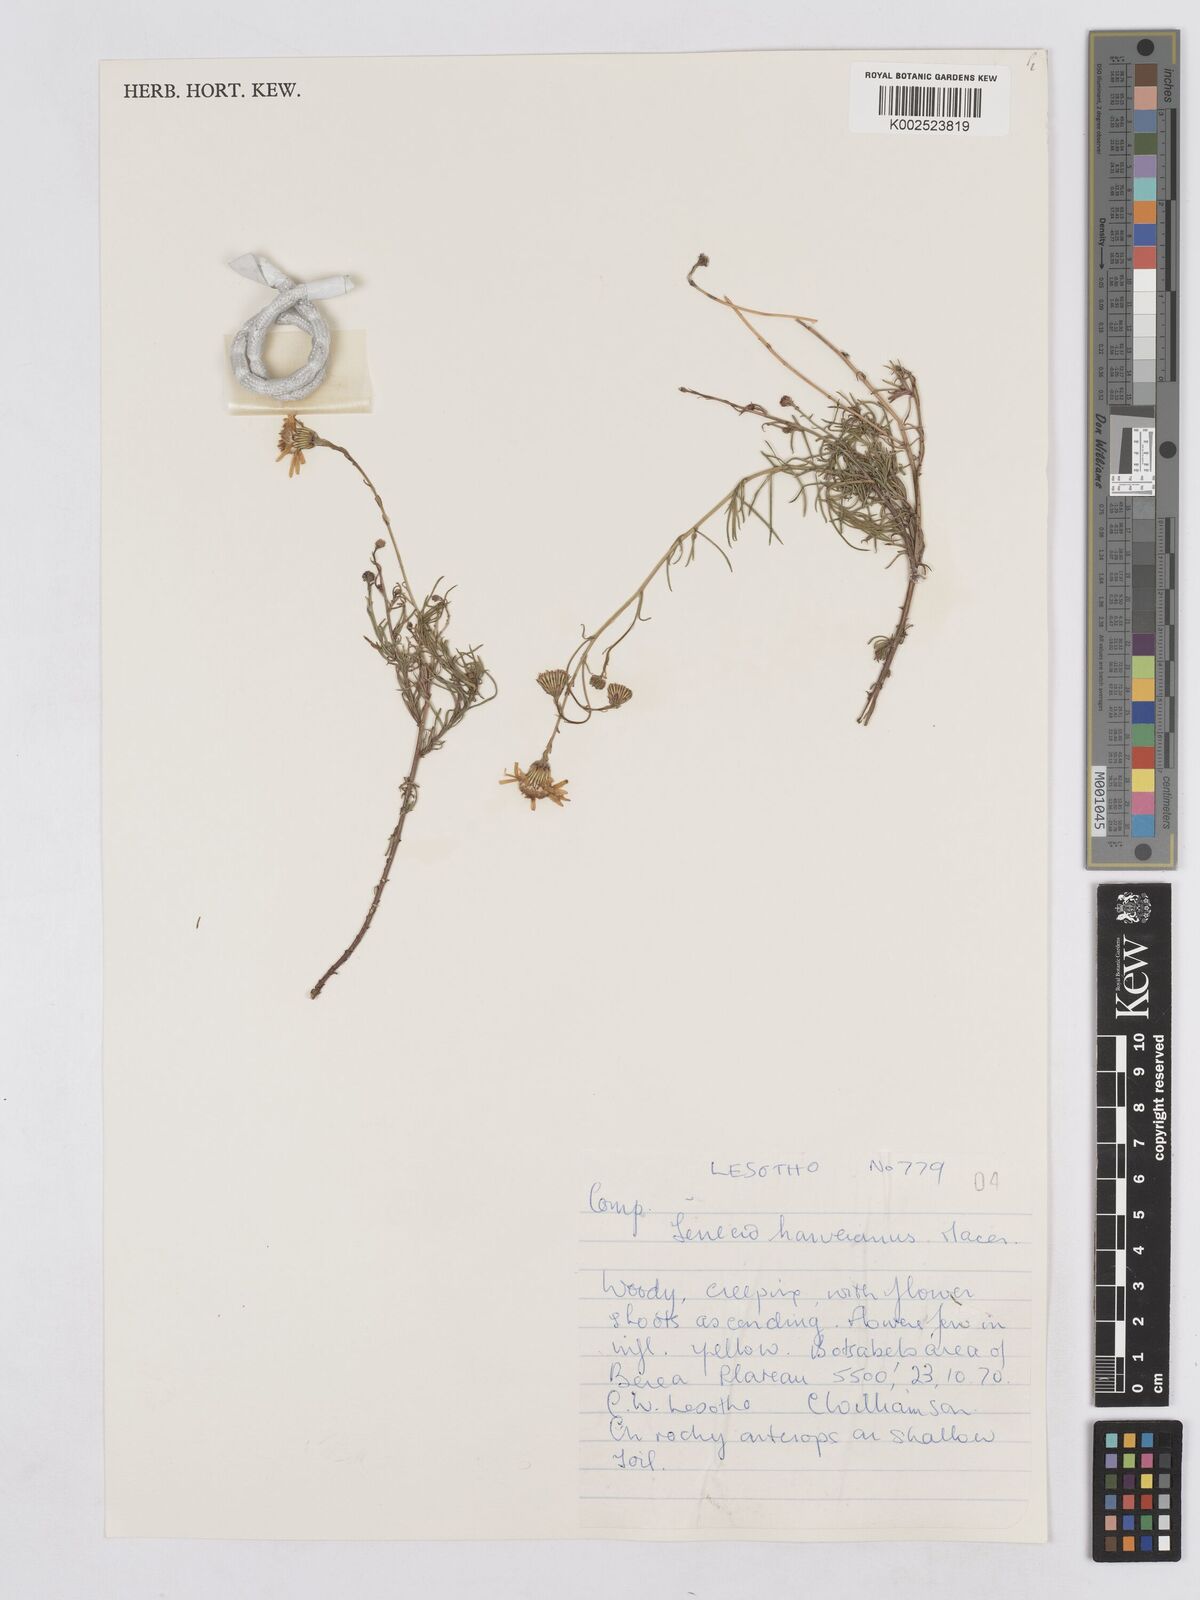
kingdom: Plantae
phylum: Tracheophyta
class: Magnoliopsida
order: Asterales
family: Asteraceae
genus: Senecio
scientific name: Senecio harveyanus
